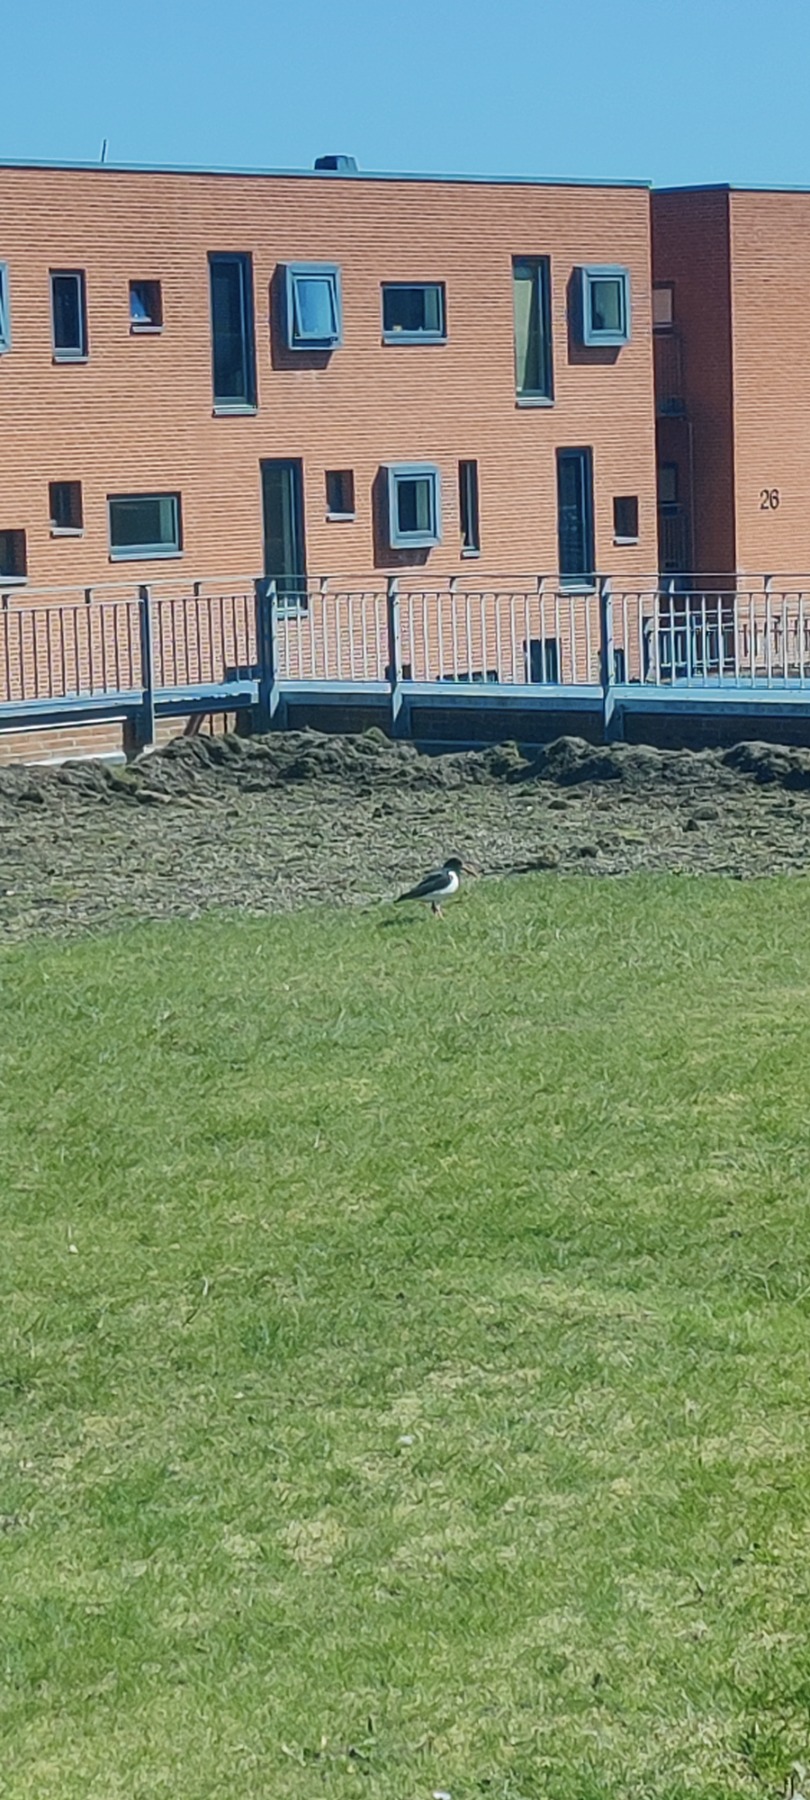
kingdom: Animalia
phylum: Chordata
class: Aves
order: Charadriiformes
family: Haematopodidae
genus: Haematopus
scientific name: Haematopus ostralegus
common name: Strandskade
